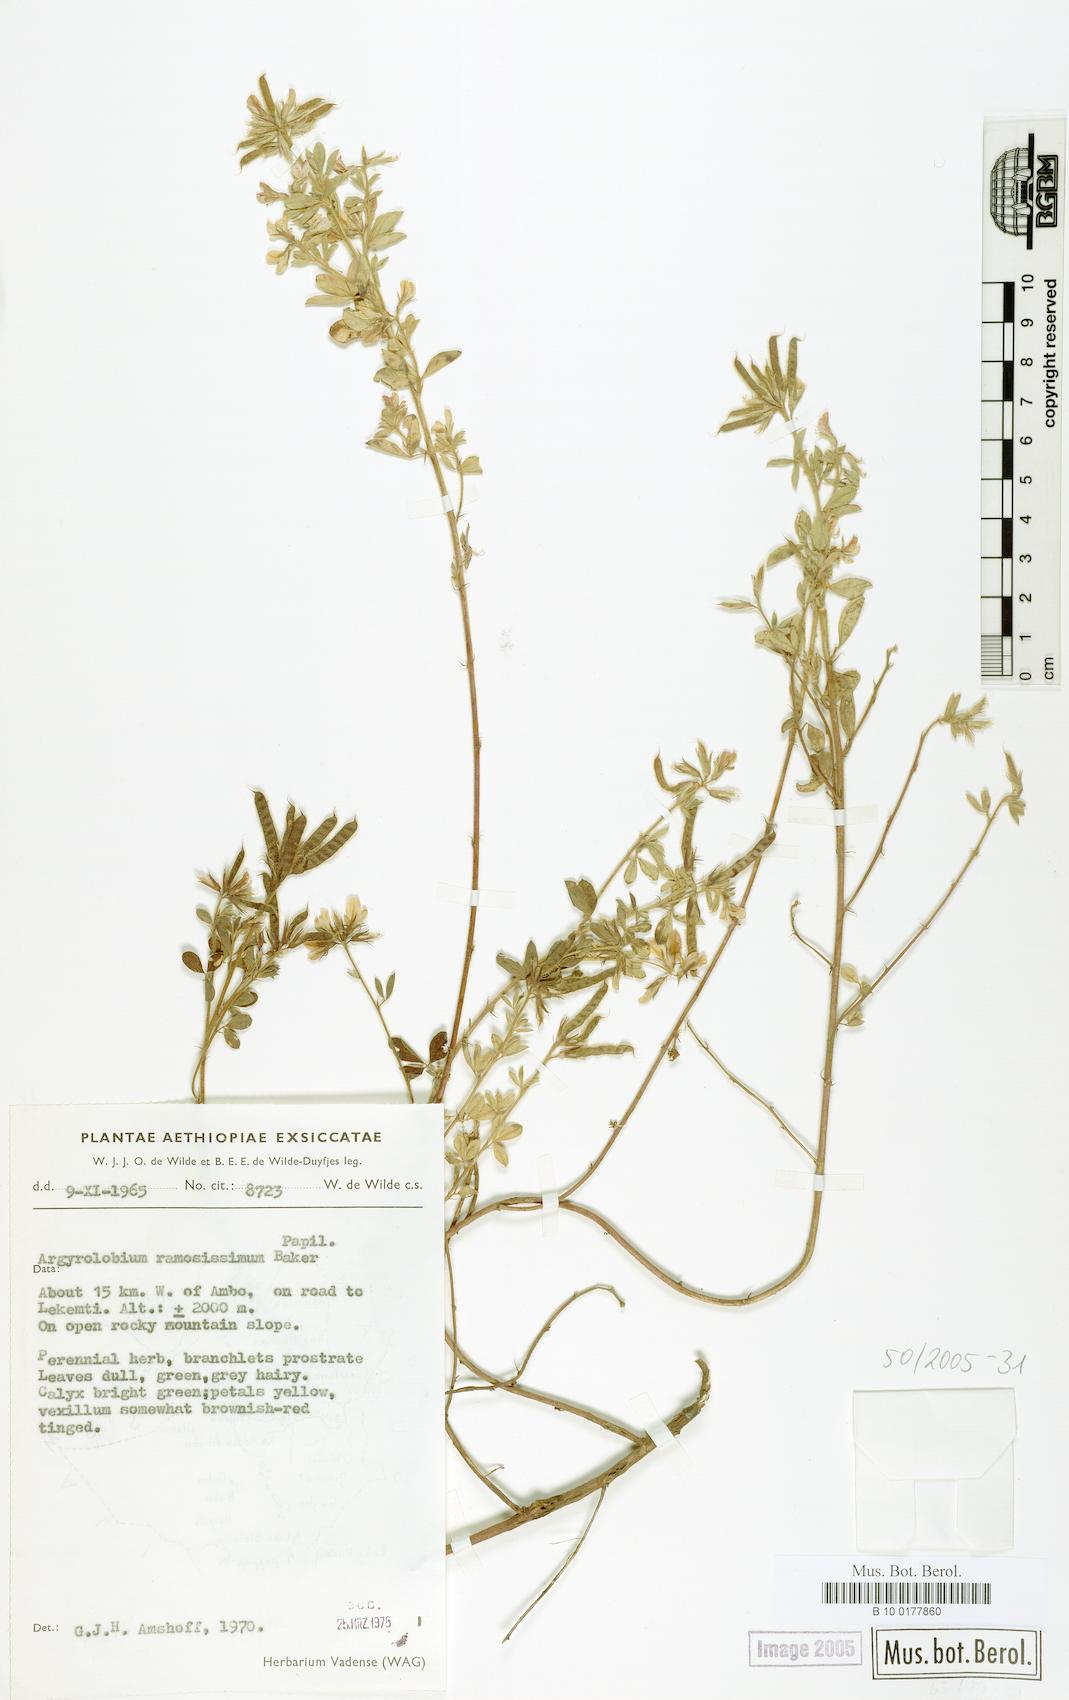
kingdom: Plantae
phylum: Tracheophyta
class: Magnoliopsida
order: Fabales
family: Fabaceae
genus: Argyrolobium
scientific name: Argyrolobium ramosissimum
